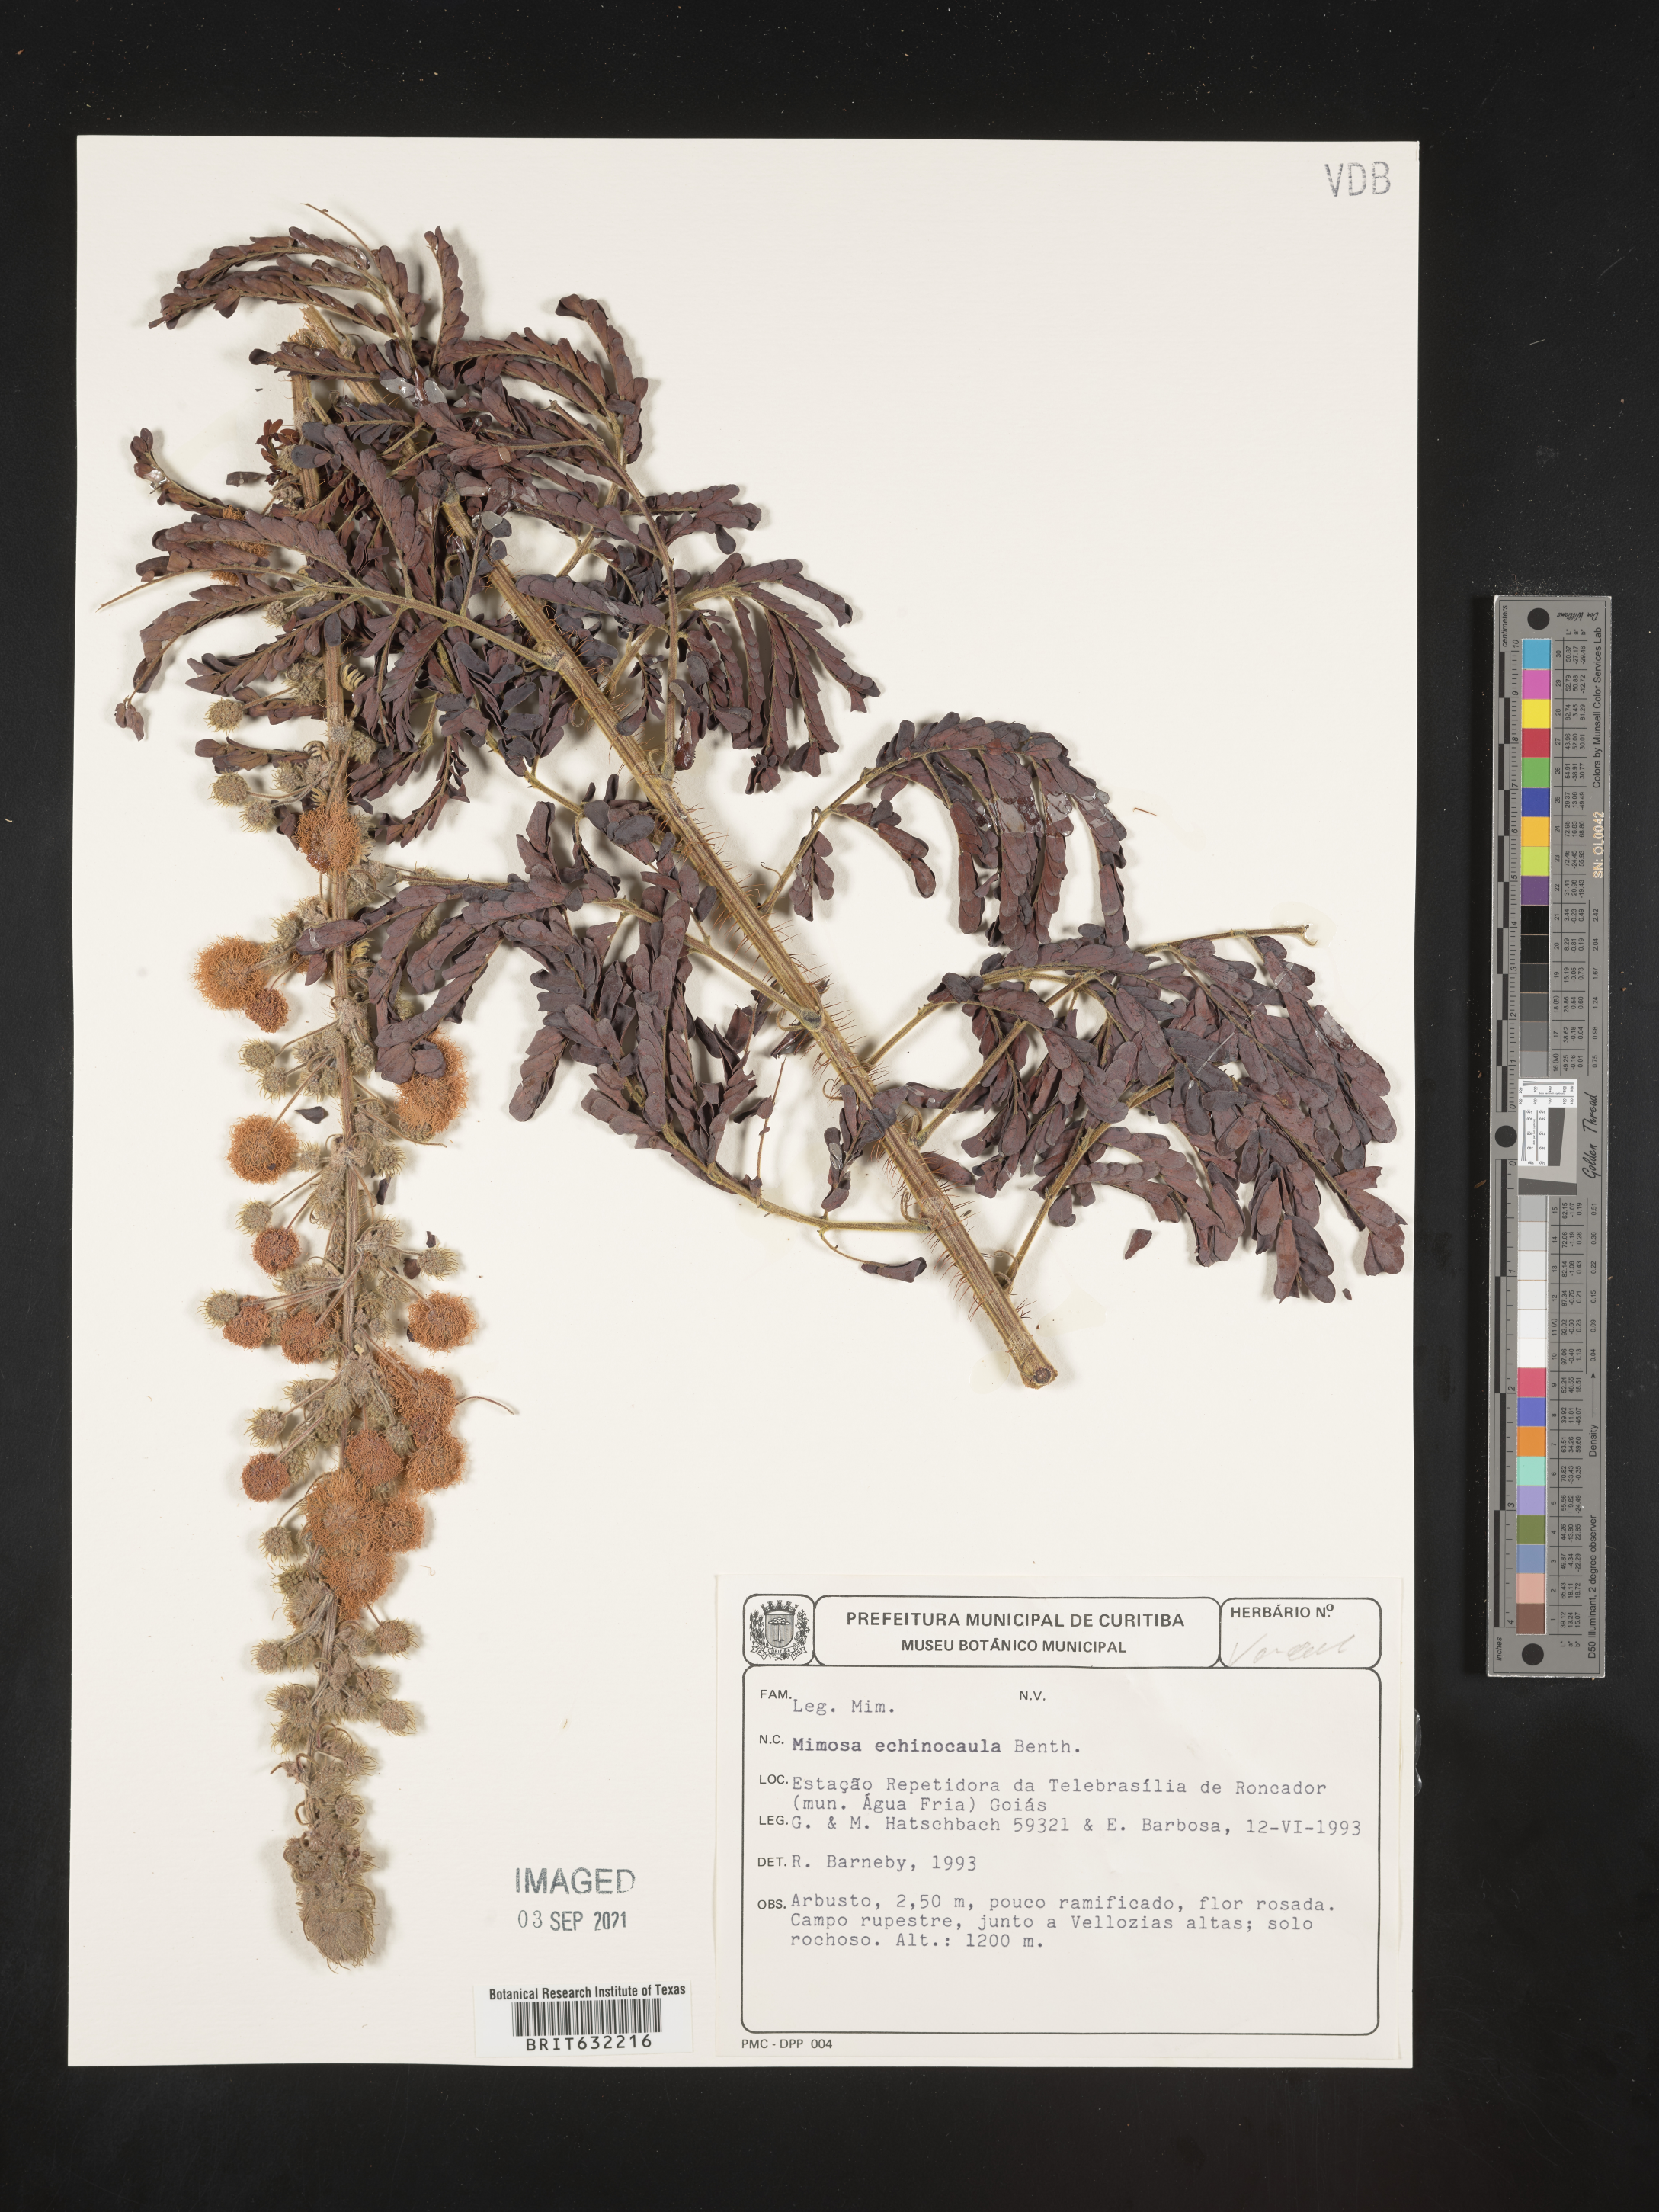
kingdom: Plantae
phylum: Tracheophyta
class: Magnoliopsida
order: Fabales
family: Fabaceae
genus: Mimosa
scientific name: Mimosa
